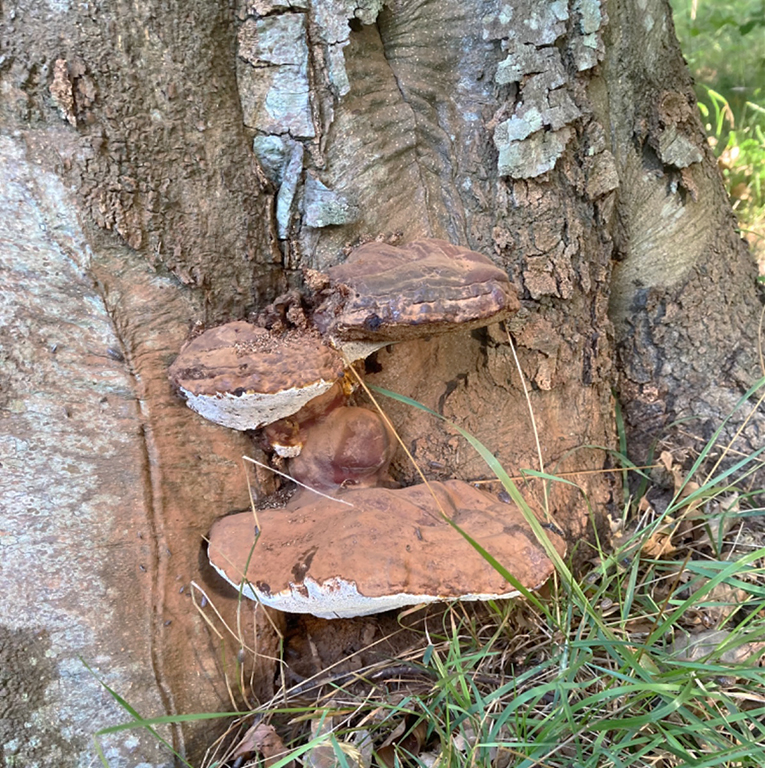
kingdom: Fungi
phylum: Basidiomycota
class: Agaricomycetes
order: Polyporales
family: Polyporaceae
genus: Ganoderma
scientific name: Ganoderma pfeifferi
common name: kobberrød lakporesvamp
